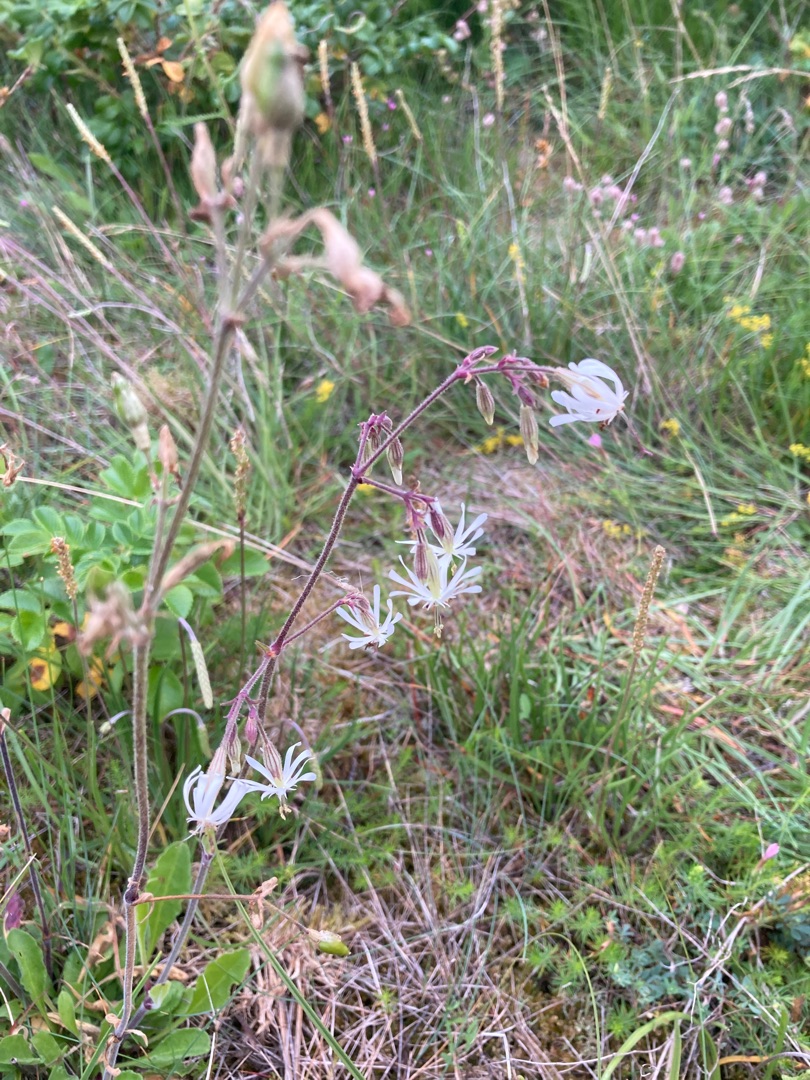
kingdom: Plantae
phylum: Tracheophyta
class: Magnoliopsida
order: Caryophyllales
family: Caryophyllaceae
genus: Silene
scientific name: Silene nutans
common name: Nikkende limurt
